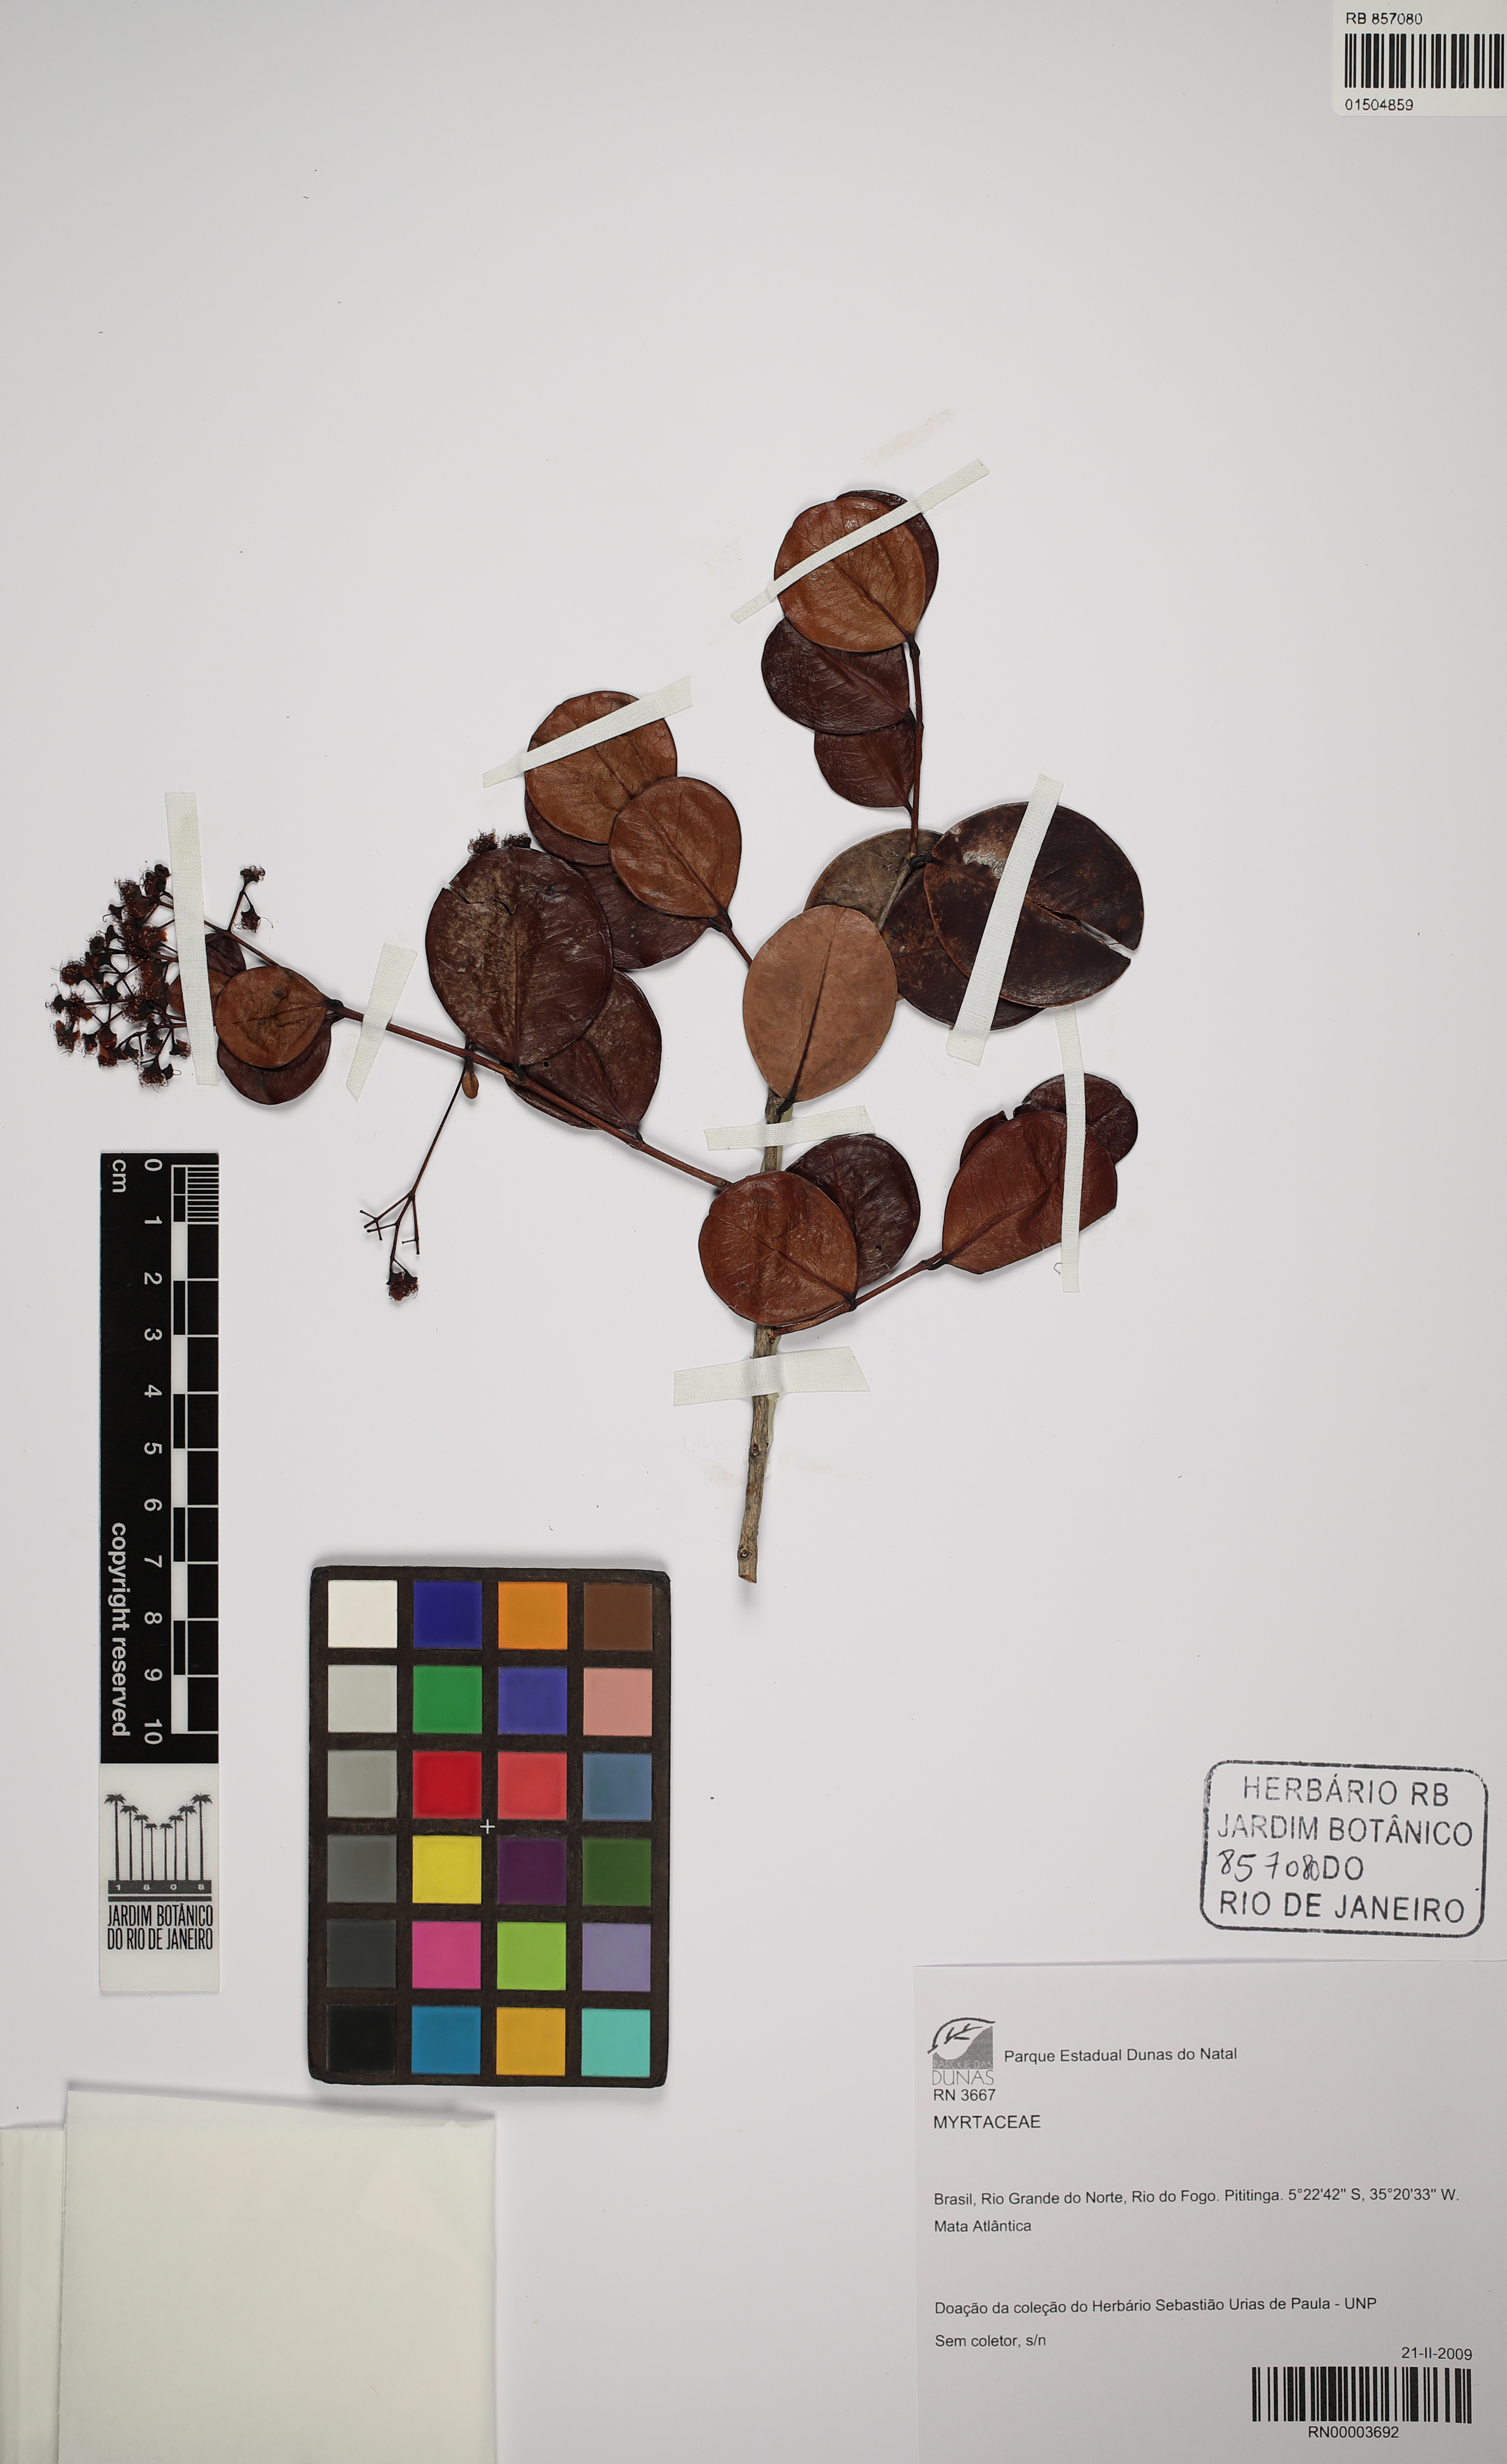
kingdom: Plantae
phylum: Tracheophyta
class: Magnoliopsida
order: Myrtales
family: Myrtaceae
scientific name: Myrtaceae
